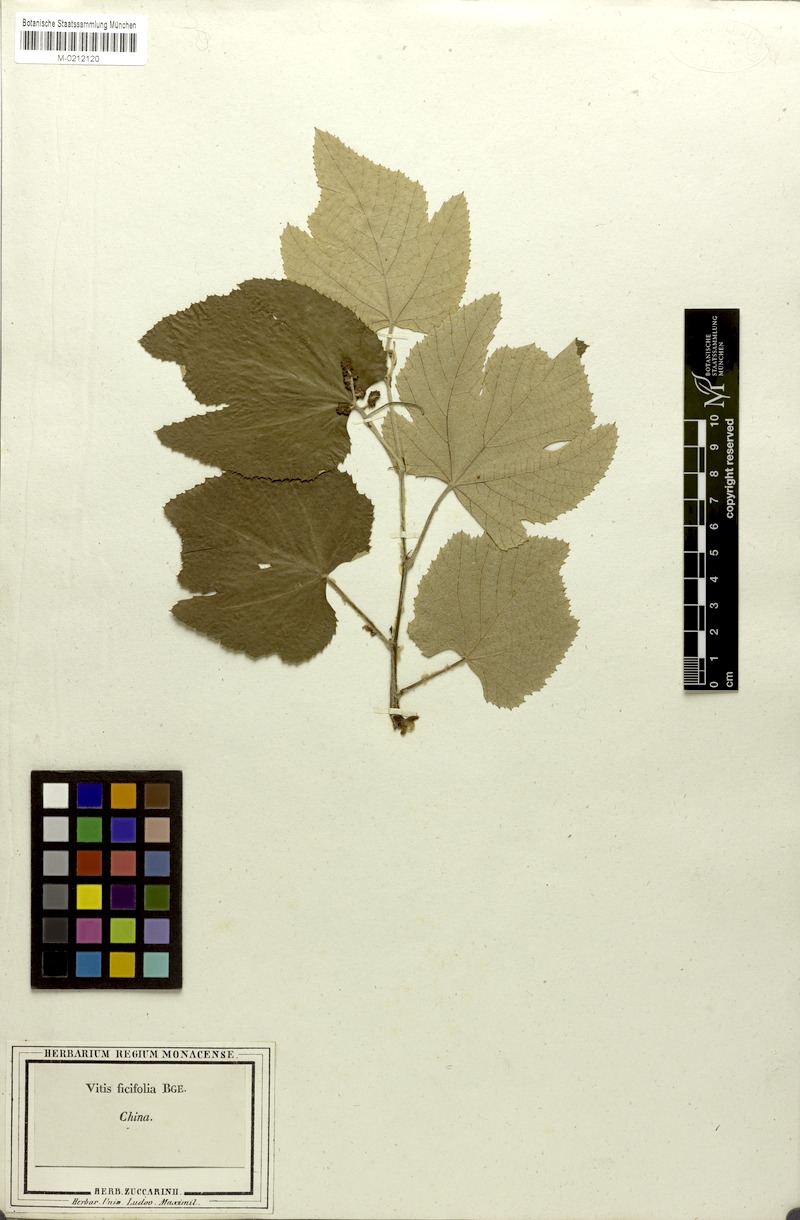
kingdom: Plantae
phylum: Tracheophyta
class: Magnoliopsida
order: Vitales
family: Vitaceae
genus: Vitis
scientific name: Vitis ficifolia
